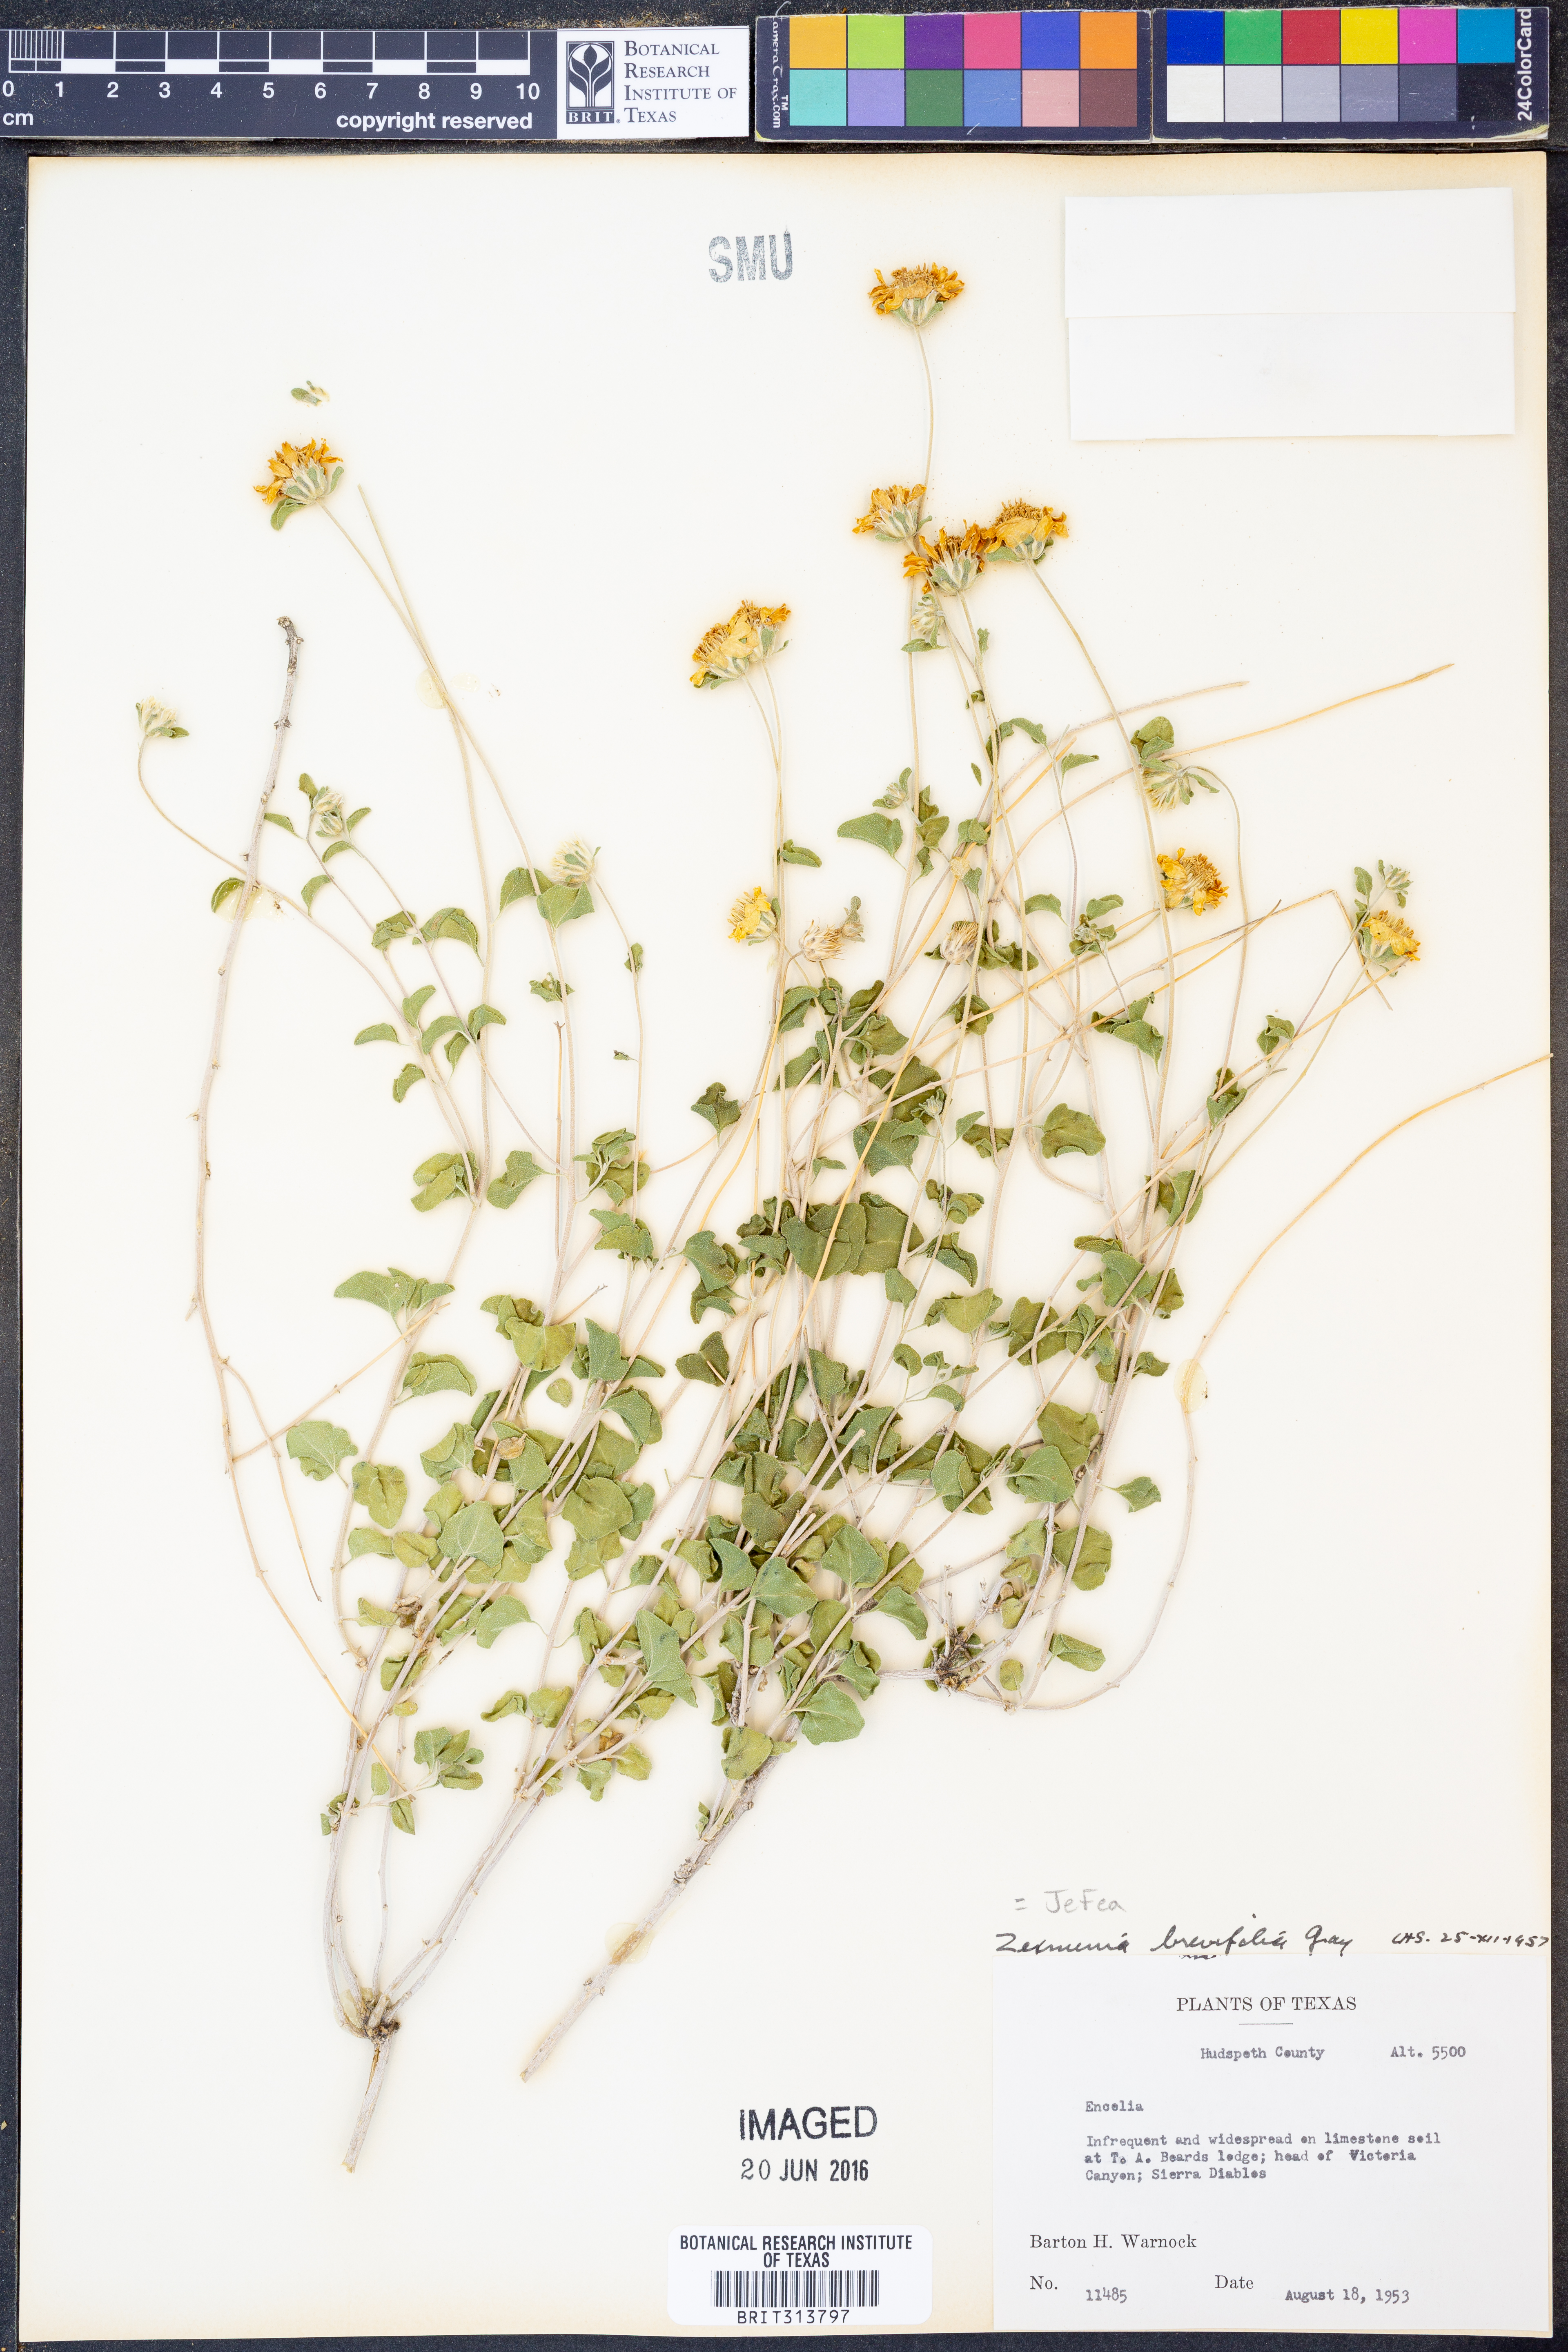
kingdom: Plantae
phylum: Tracheophyta
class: Magnoliopsida
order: Asterales
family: Asteraceae
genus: Jefea
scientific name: Jefea brevifolia
